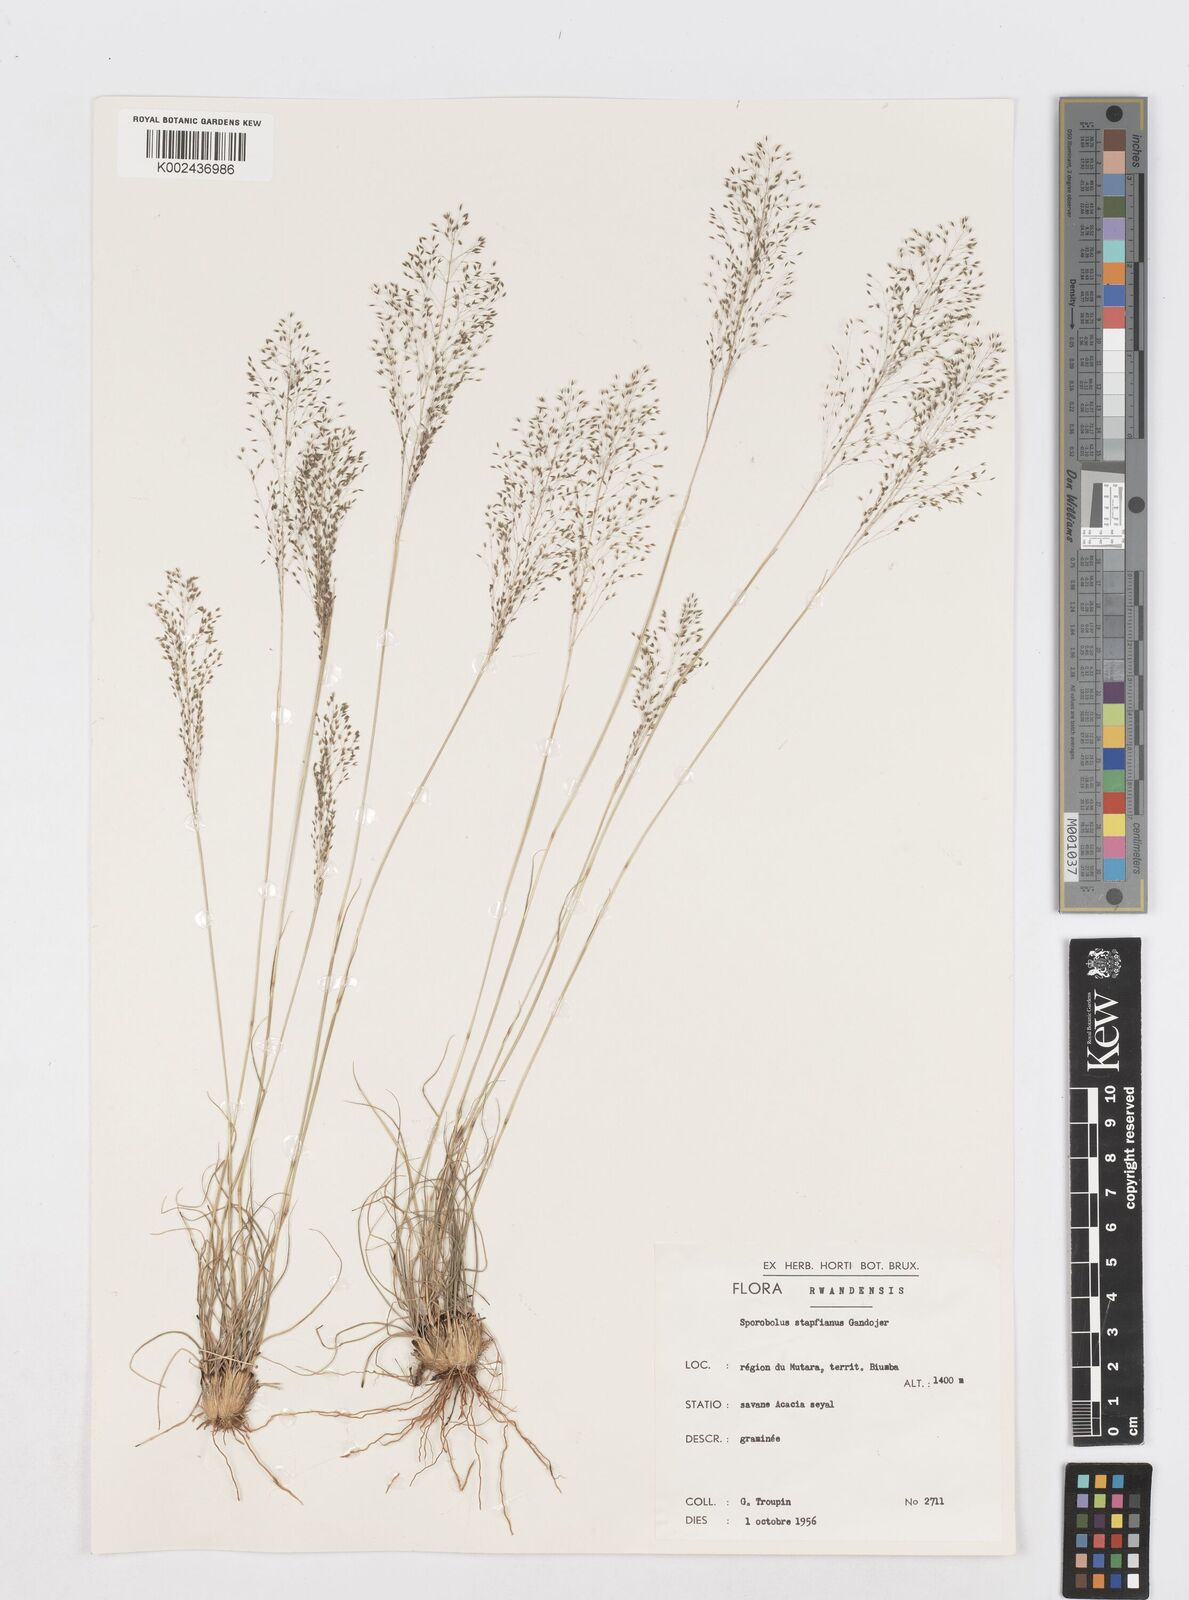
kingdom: Plantae
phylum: Tracheophyta
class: Liliopsida
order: Poales
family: Poaceae
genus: Sporobolus
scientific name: Sporobolus stapfianus
